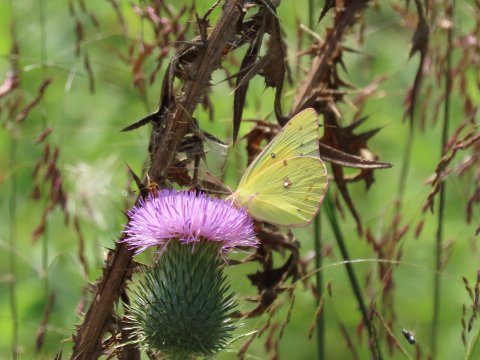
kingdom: Animalia
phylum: Arthropoda
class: Insecta
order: Lepidoptera
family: Pieridae
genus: Colias
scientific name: Colias eurytheme
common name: Orange Sulphur
